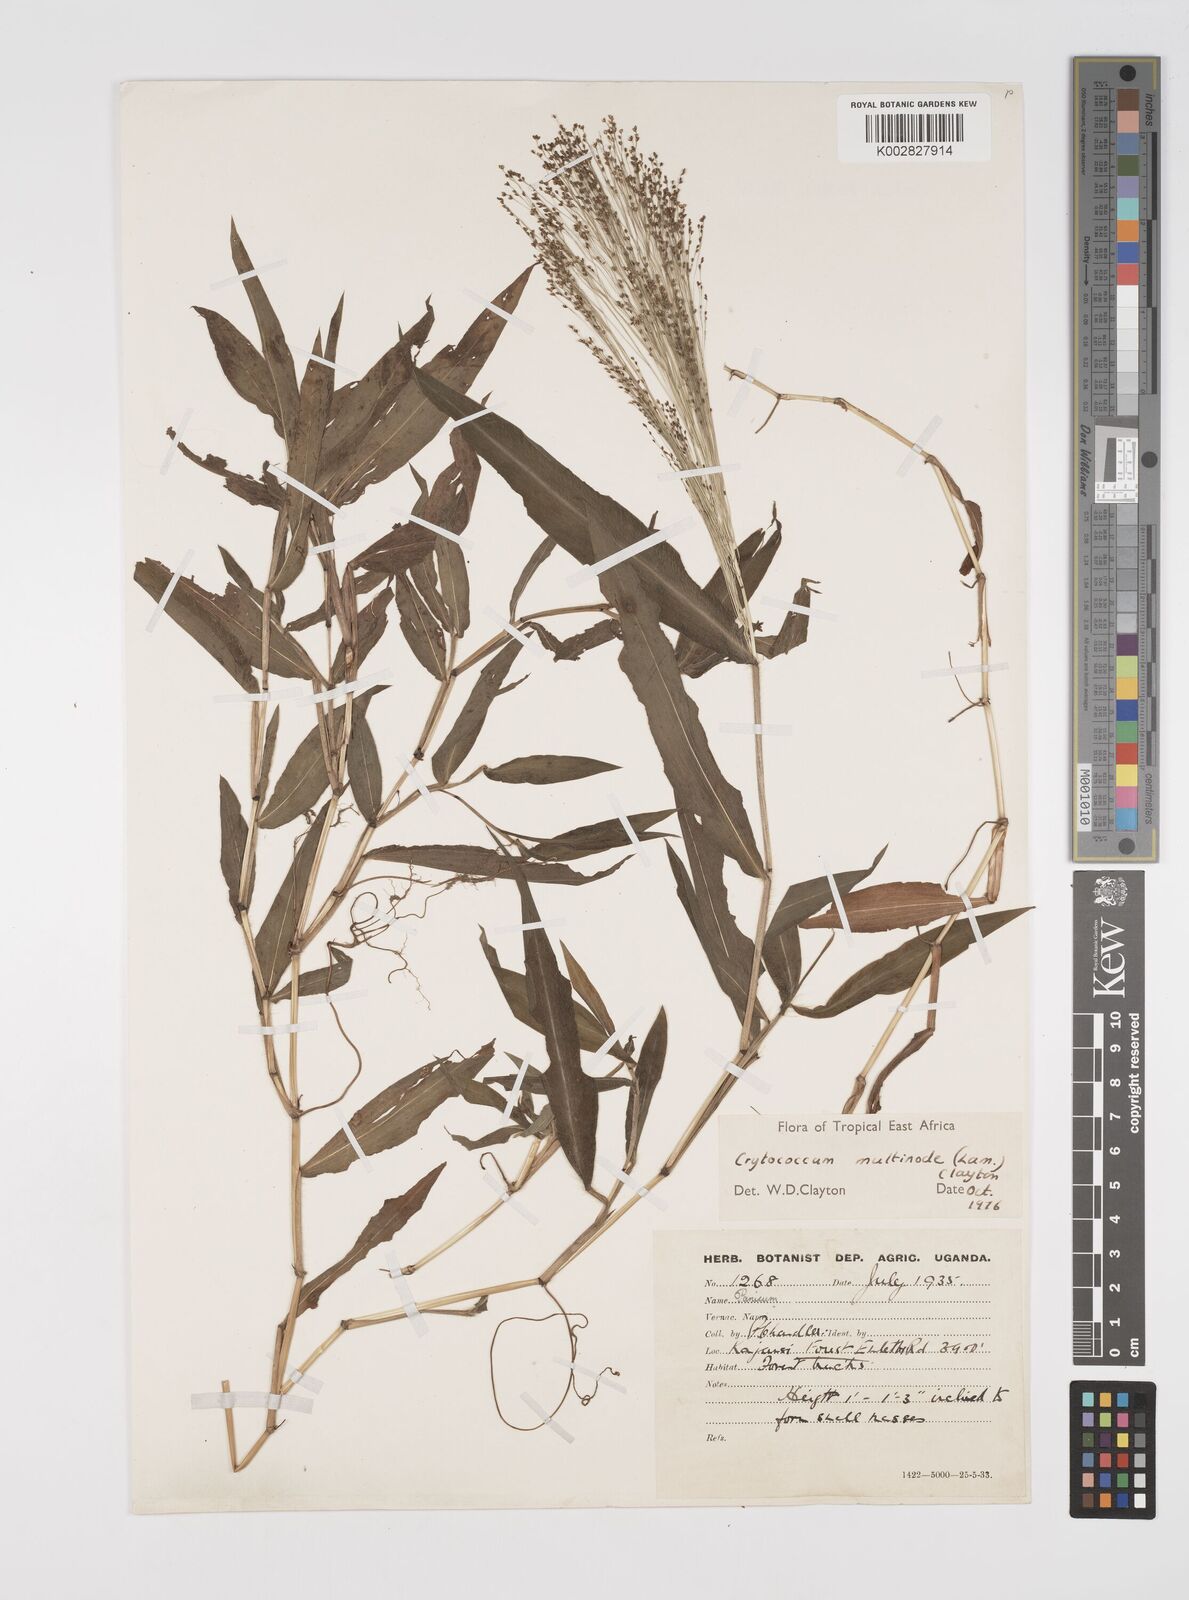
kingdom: Plantae
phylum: Tracheophyta
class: Liliopsida
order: Poales
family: Poaceae
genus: Cyrtococcum
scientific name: Cyrtococcum multinode
